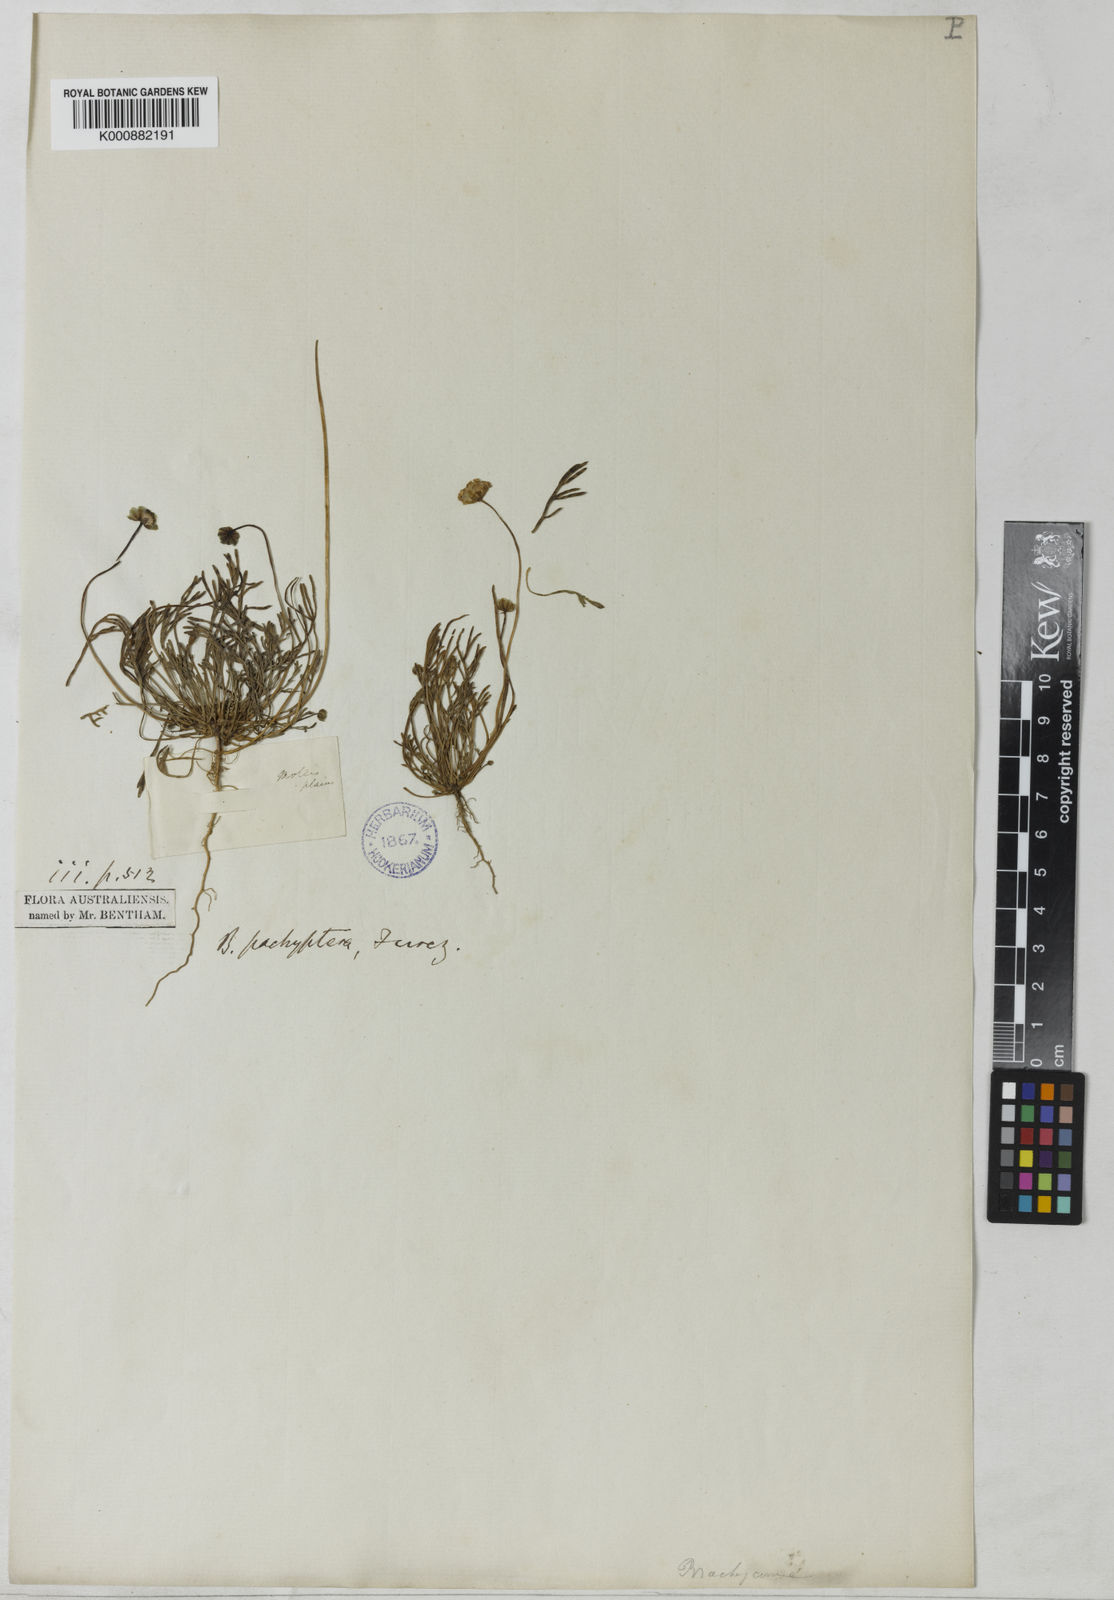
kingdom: Plantae
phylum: Tracheophyta
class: Magnoliopsida
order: Asterales
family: Asteraceae
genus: Brachyscome
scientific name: Brachyscome lineariloba
